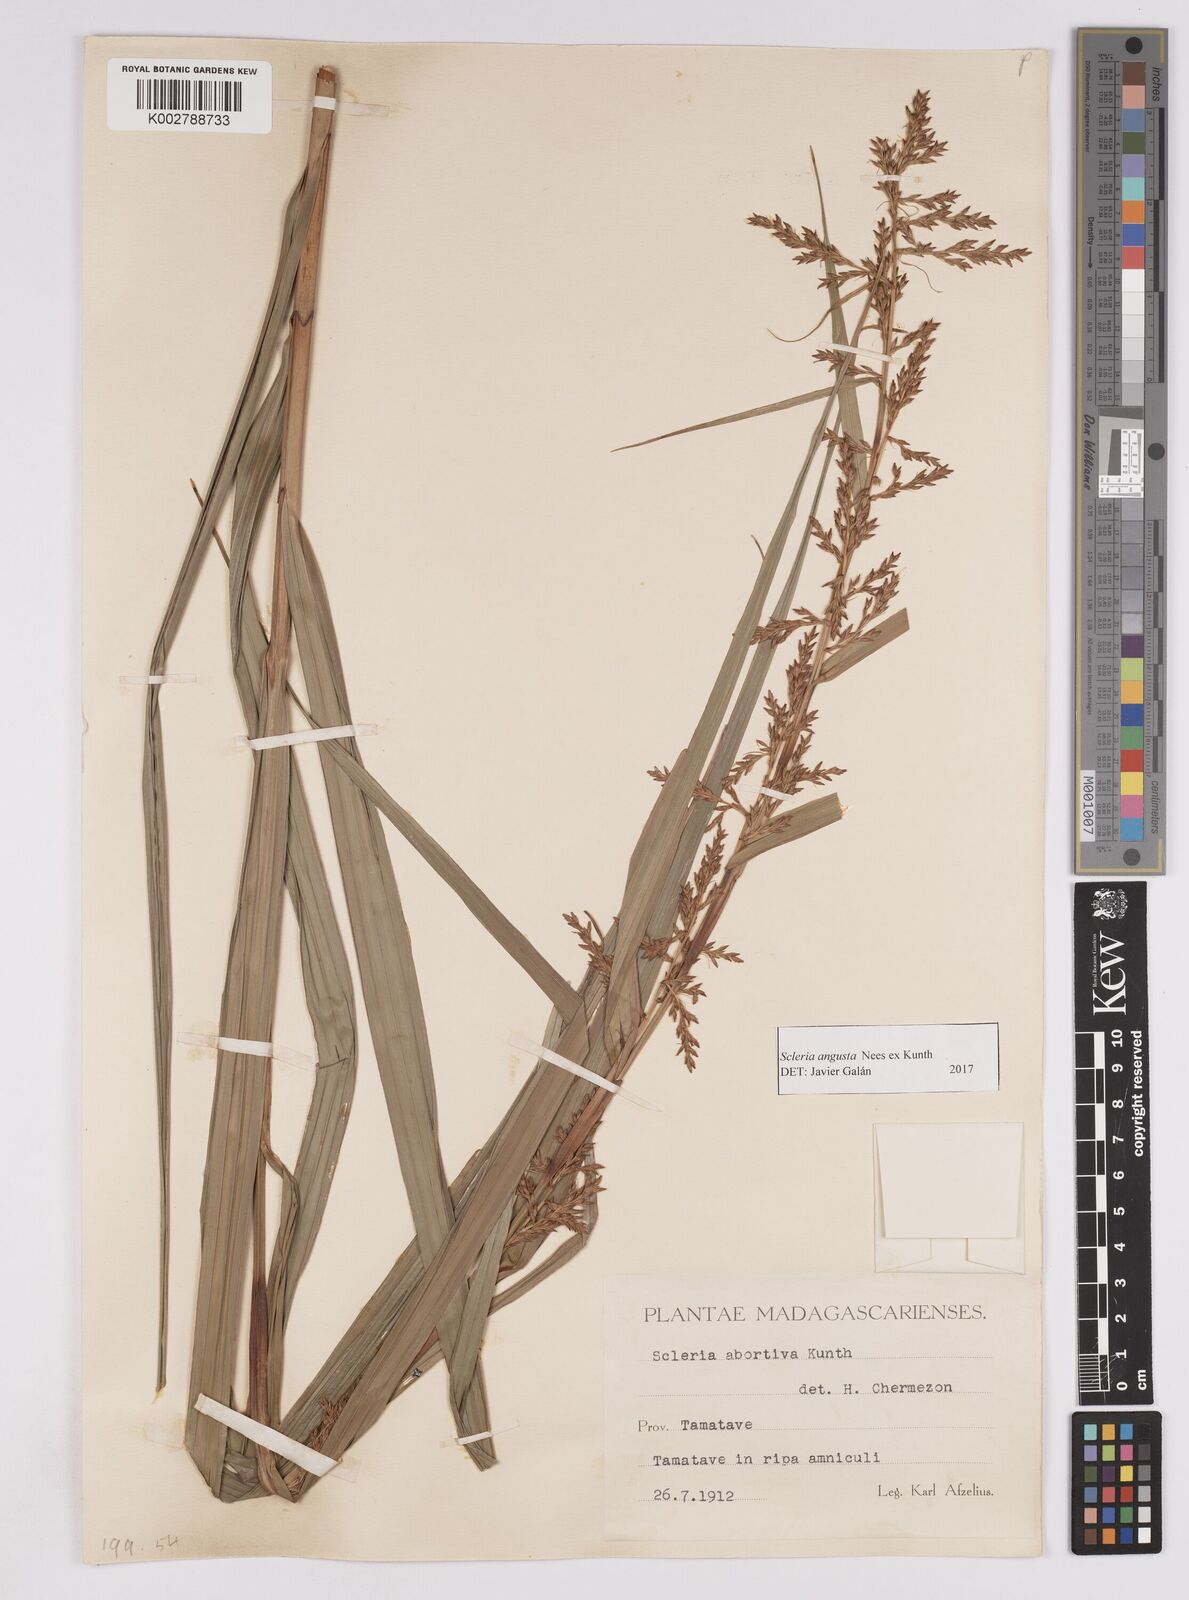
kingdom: Plantae
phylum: Tracheophyta
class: Liliopsida
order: Poales
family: Cyperaceae
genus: Scleria
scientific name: Scleria angusta
